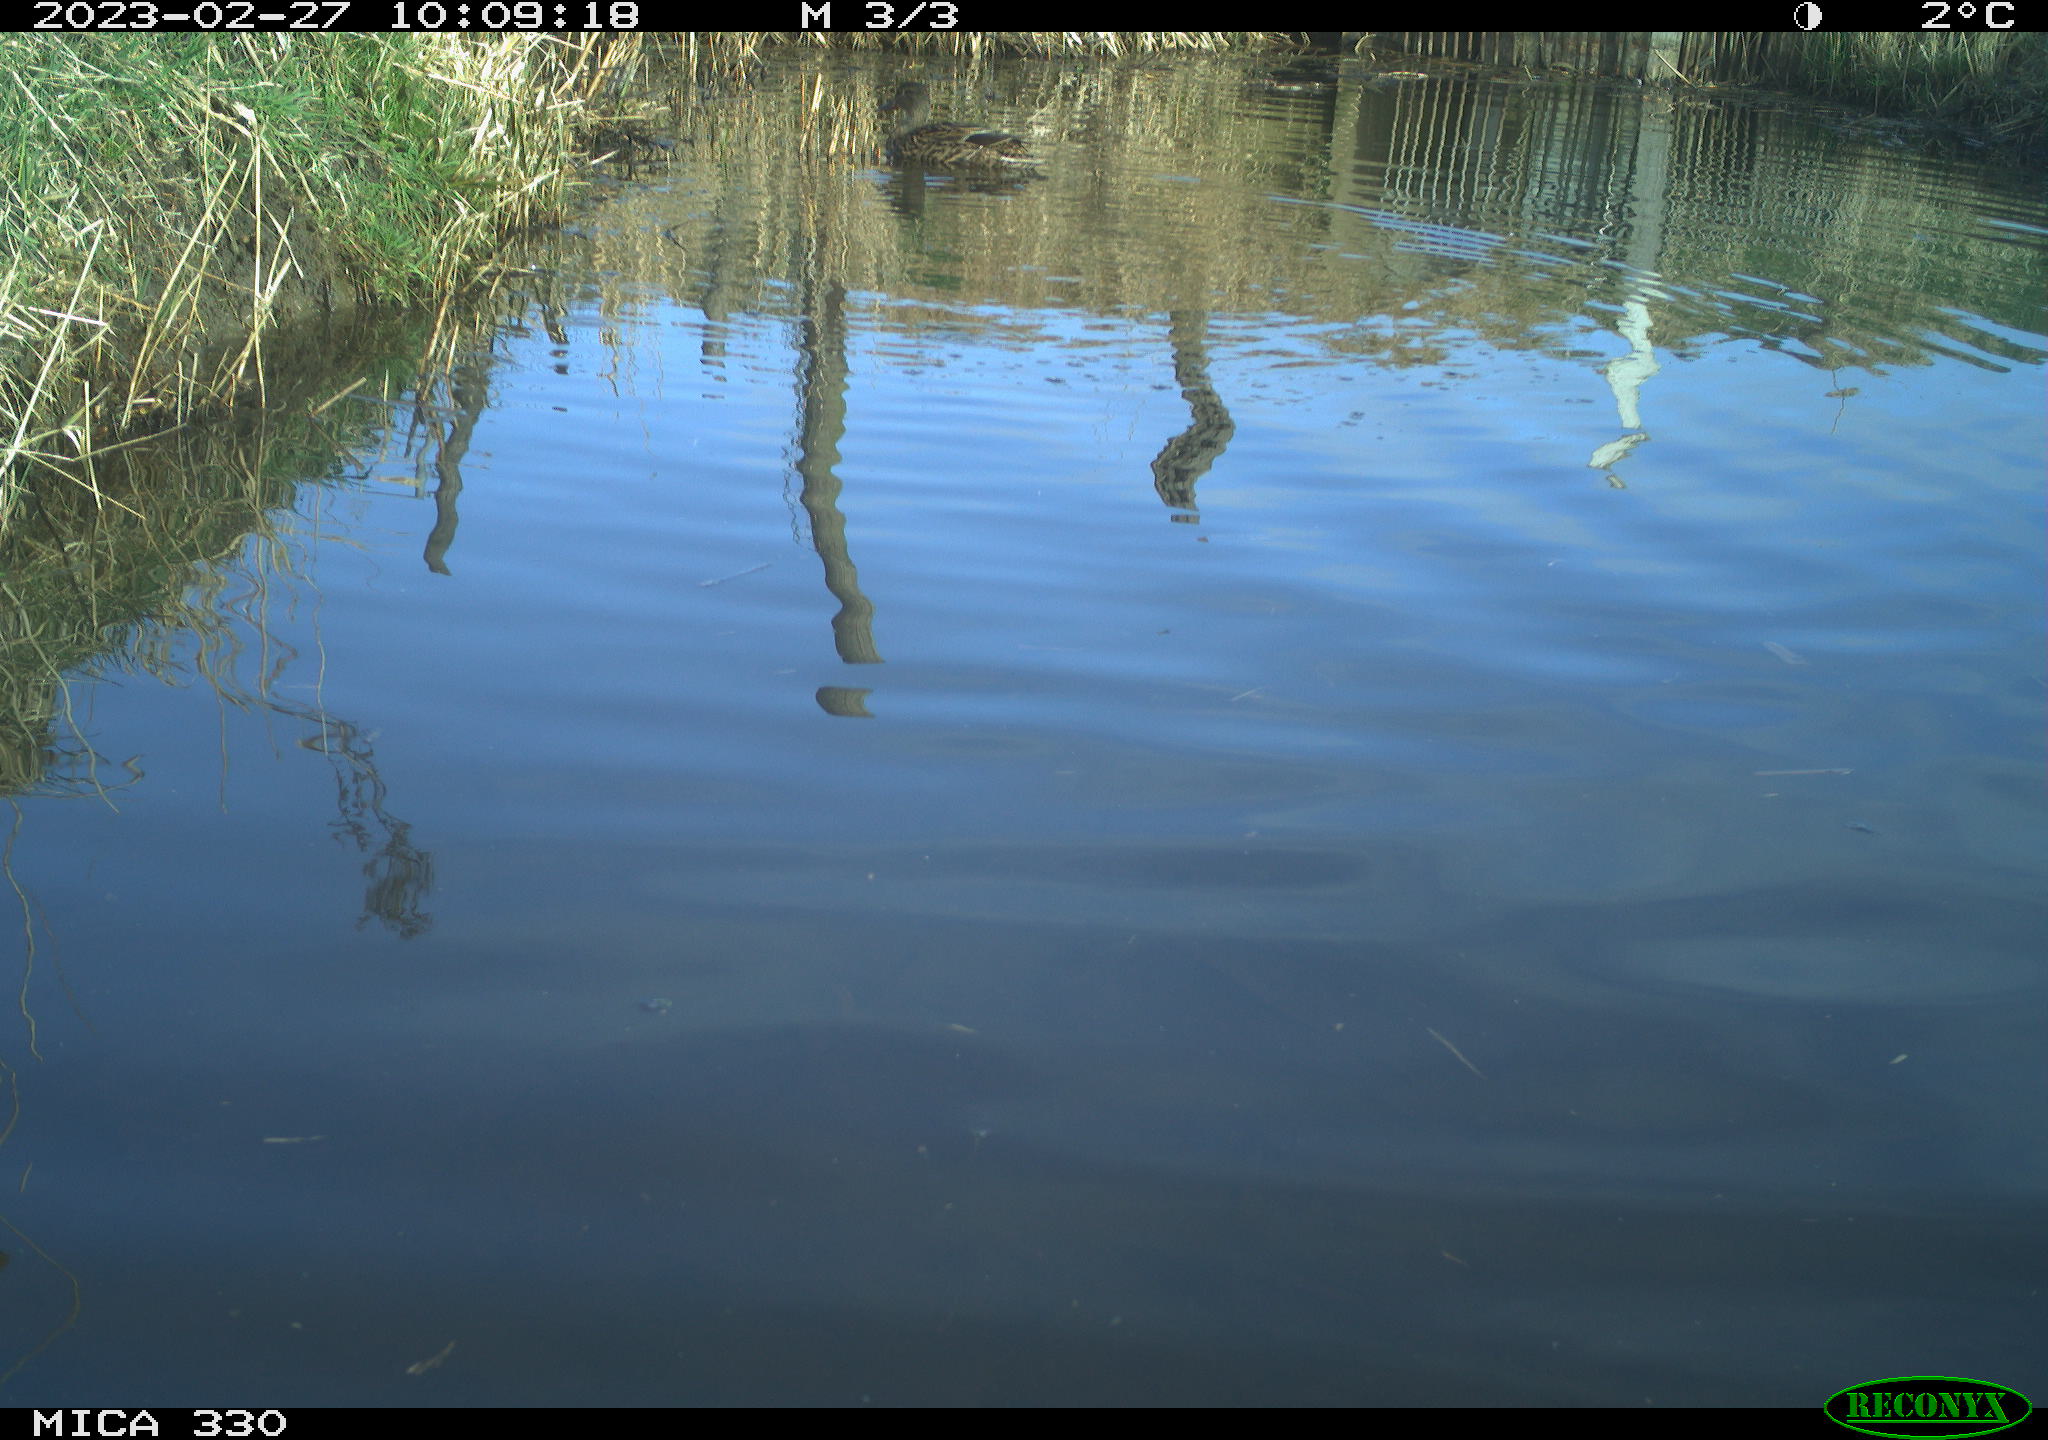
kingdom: Animalia
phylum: Chordata
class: Aves
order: Anseriformes
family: Anatidae
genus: Anas
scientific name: Anas
